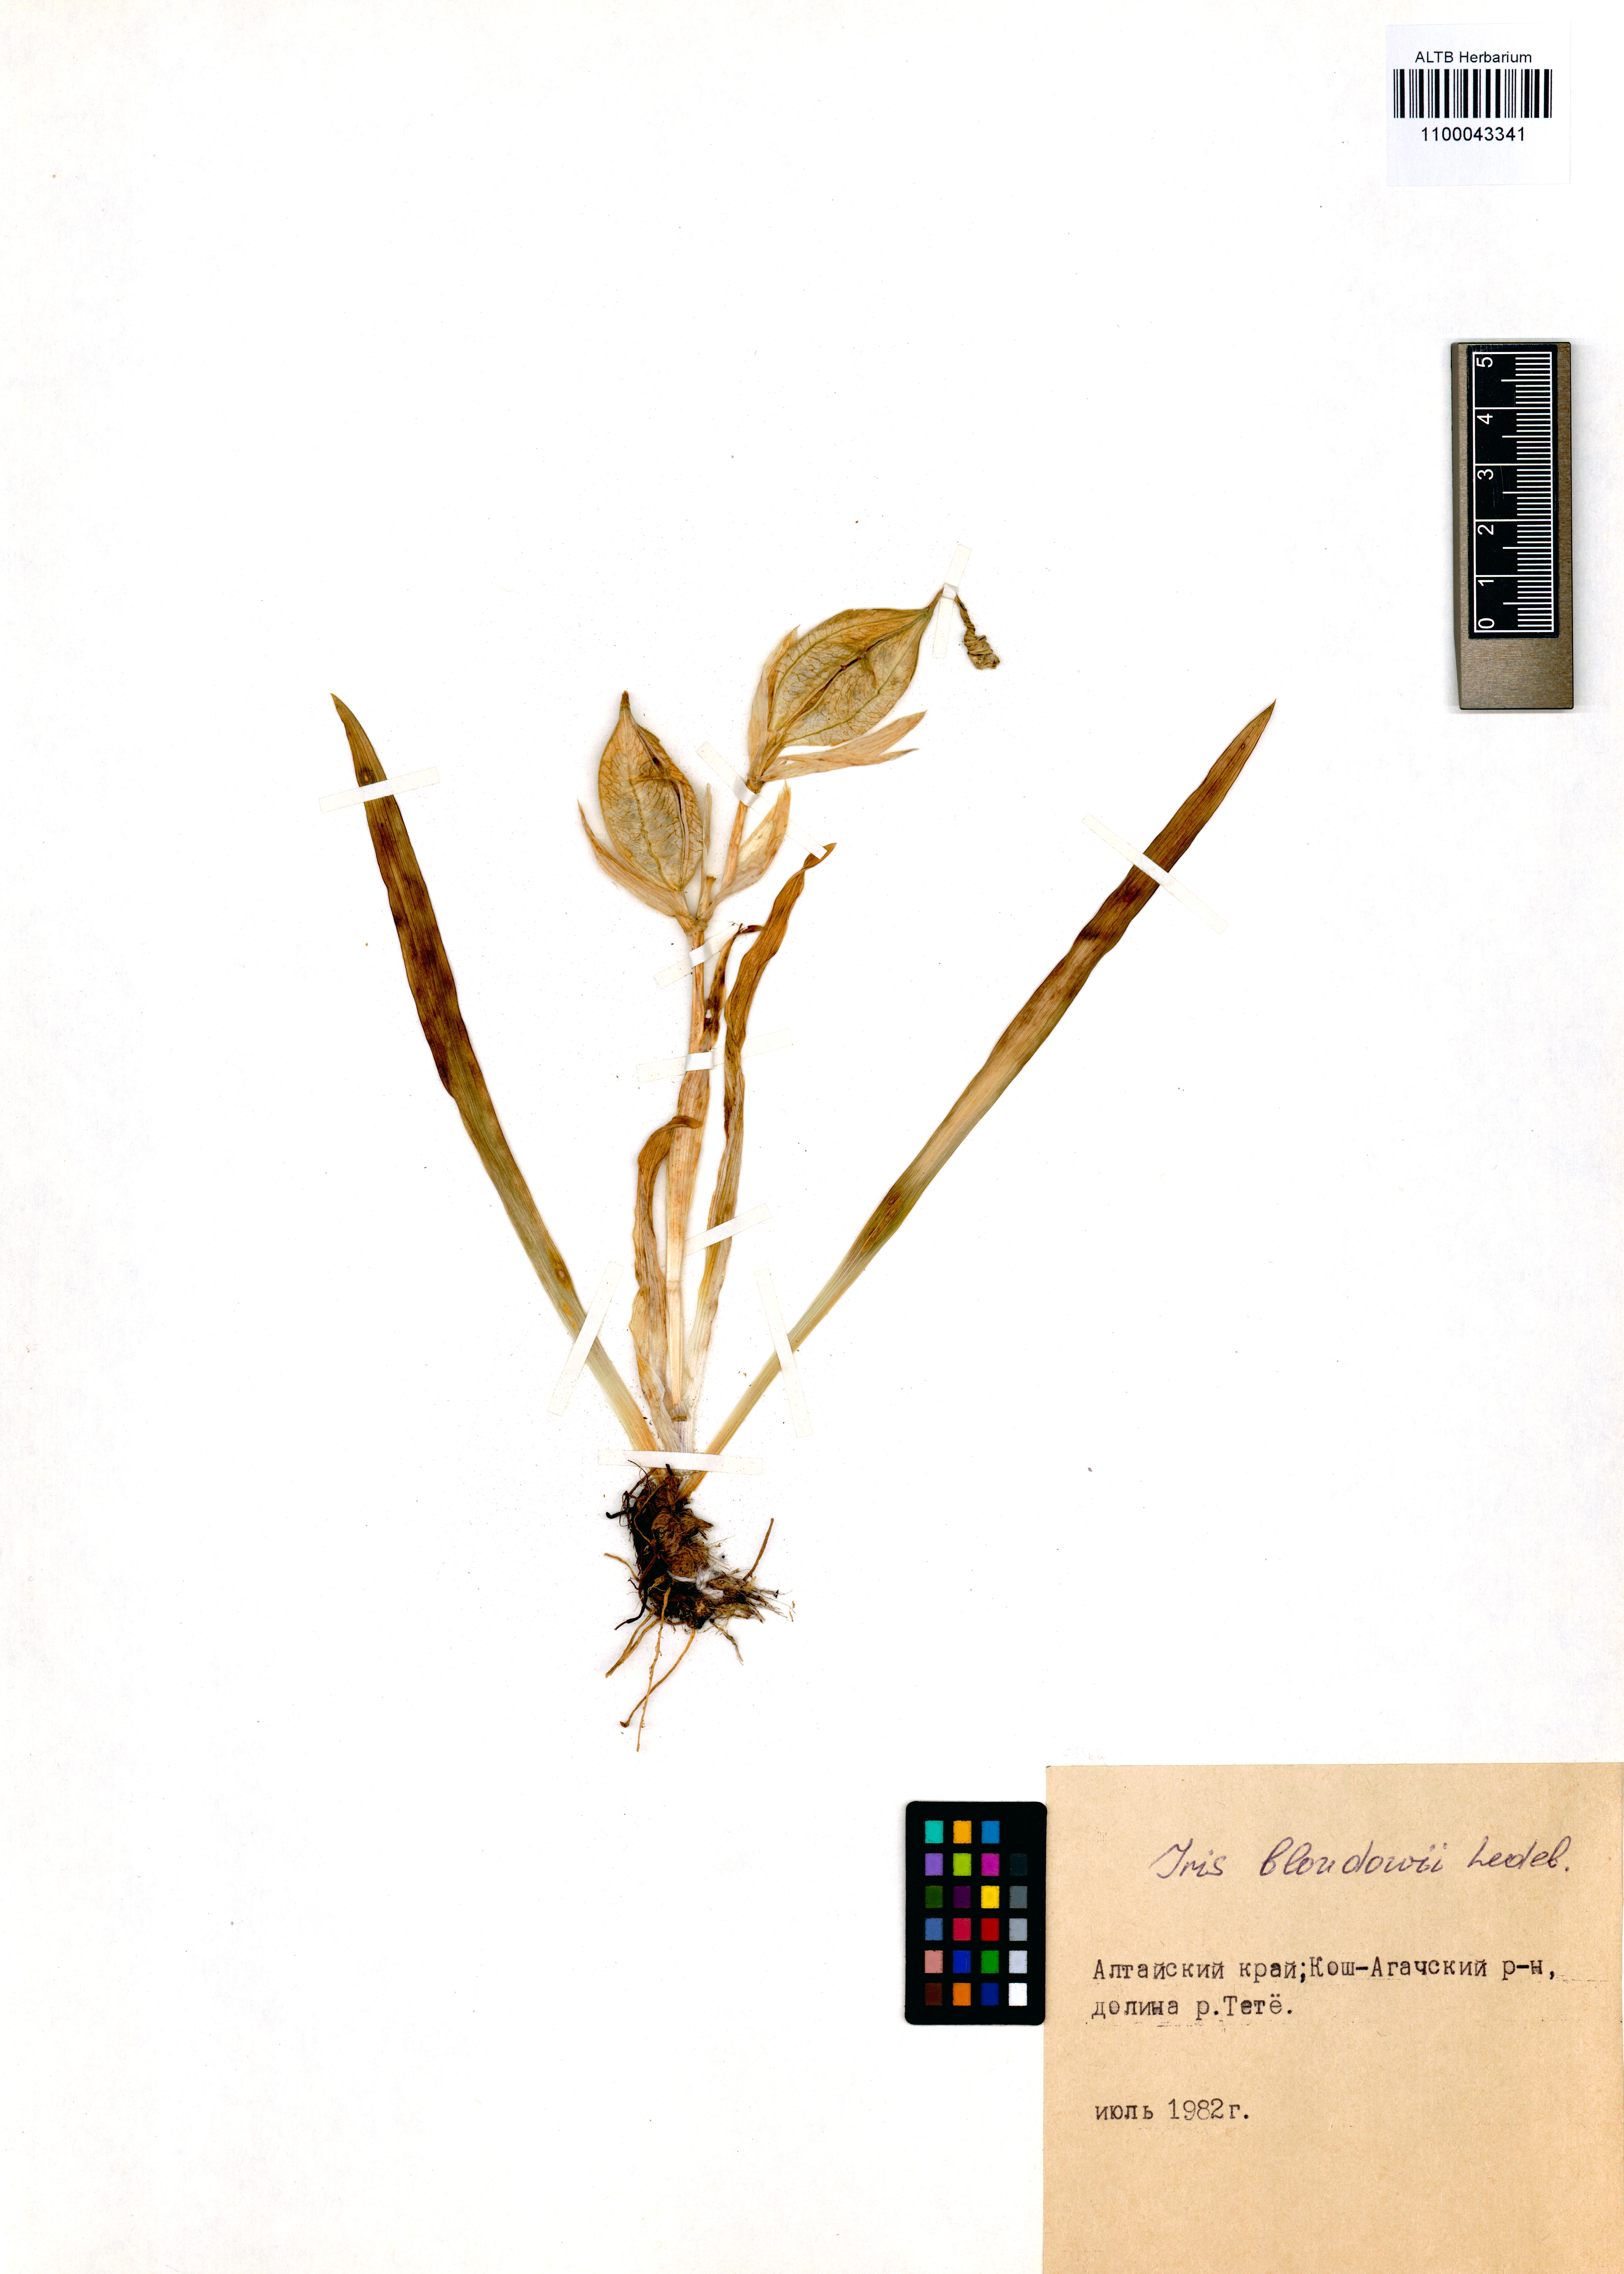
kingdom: Plantae
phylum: Tracheophyta
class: Liliopsida
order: Asparagales
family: Iridaceae
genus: Iris
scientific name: Iris bloudowii
